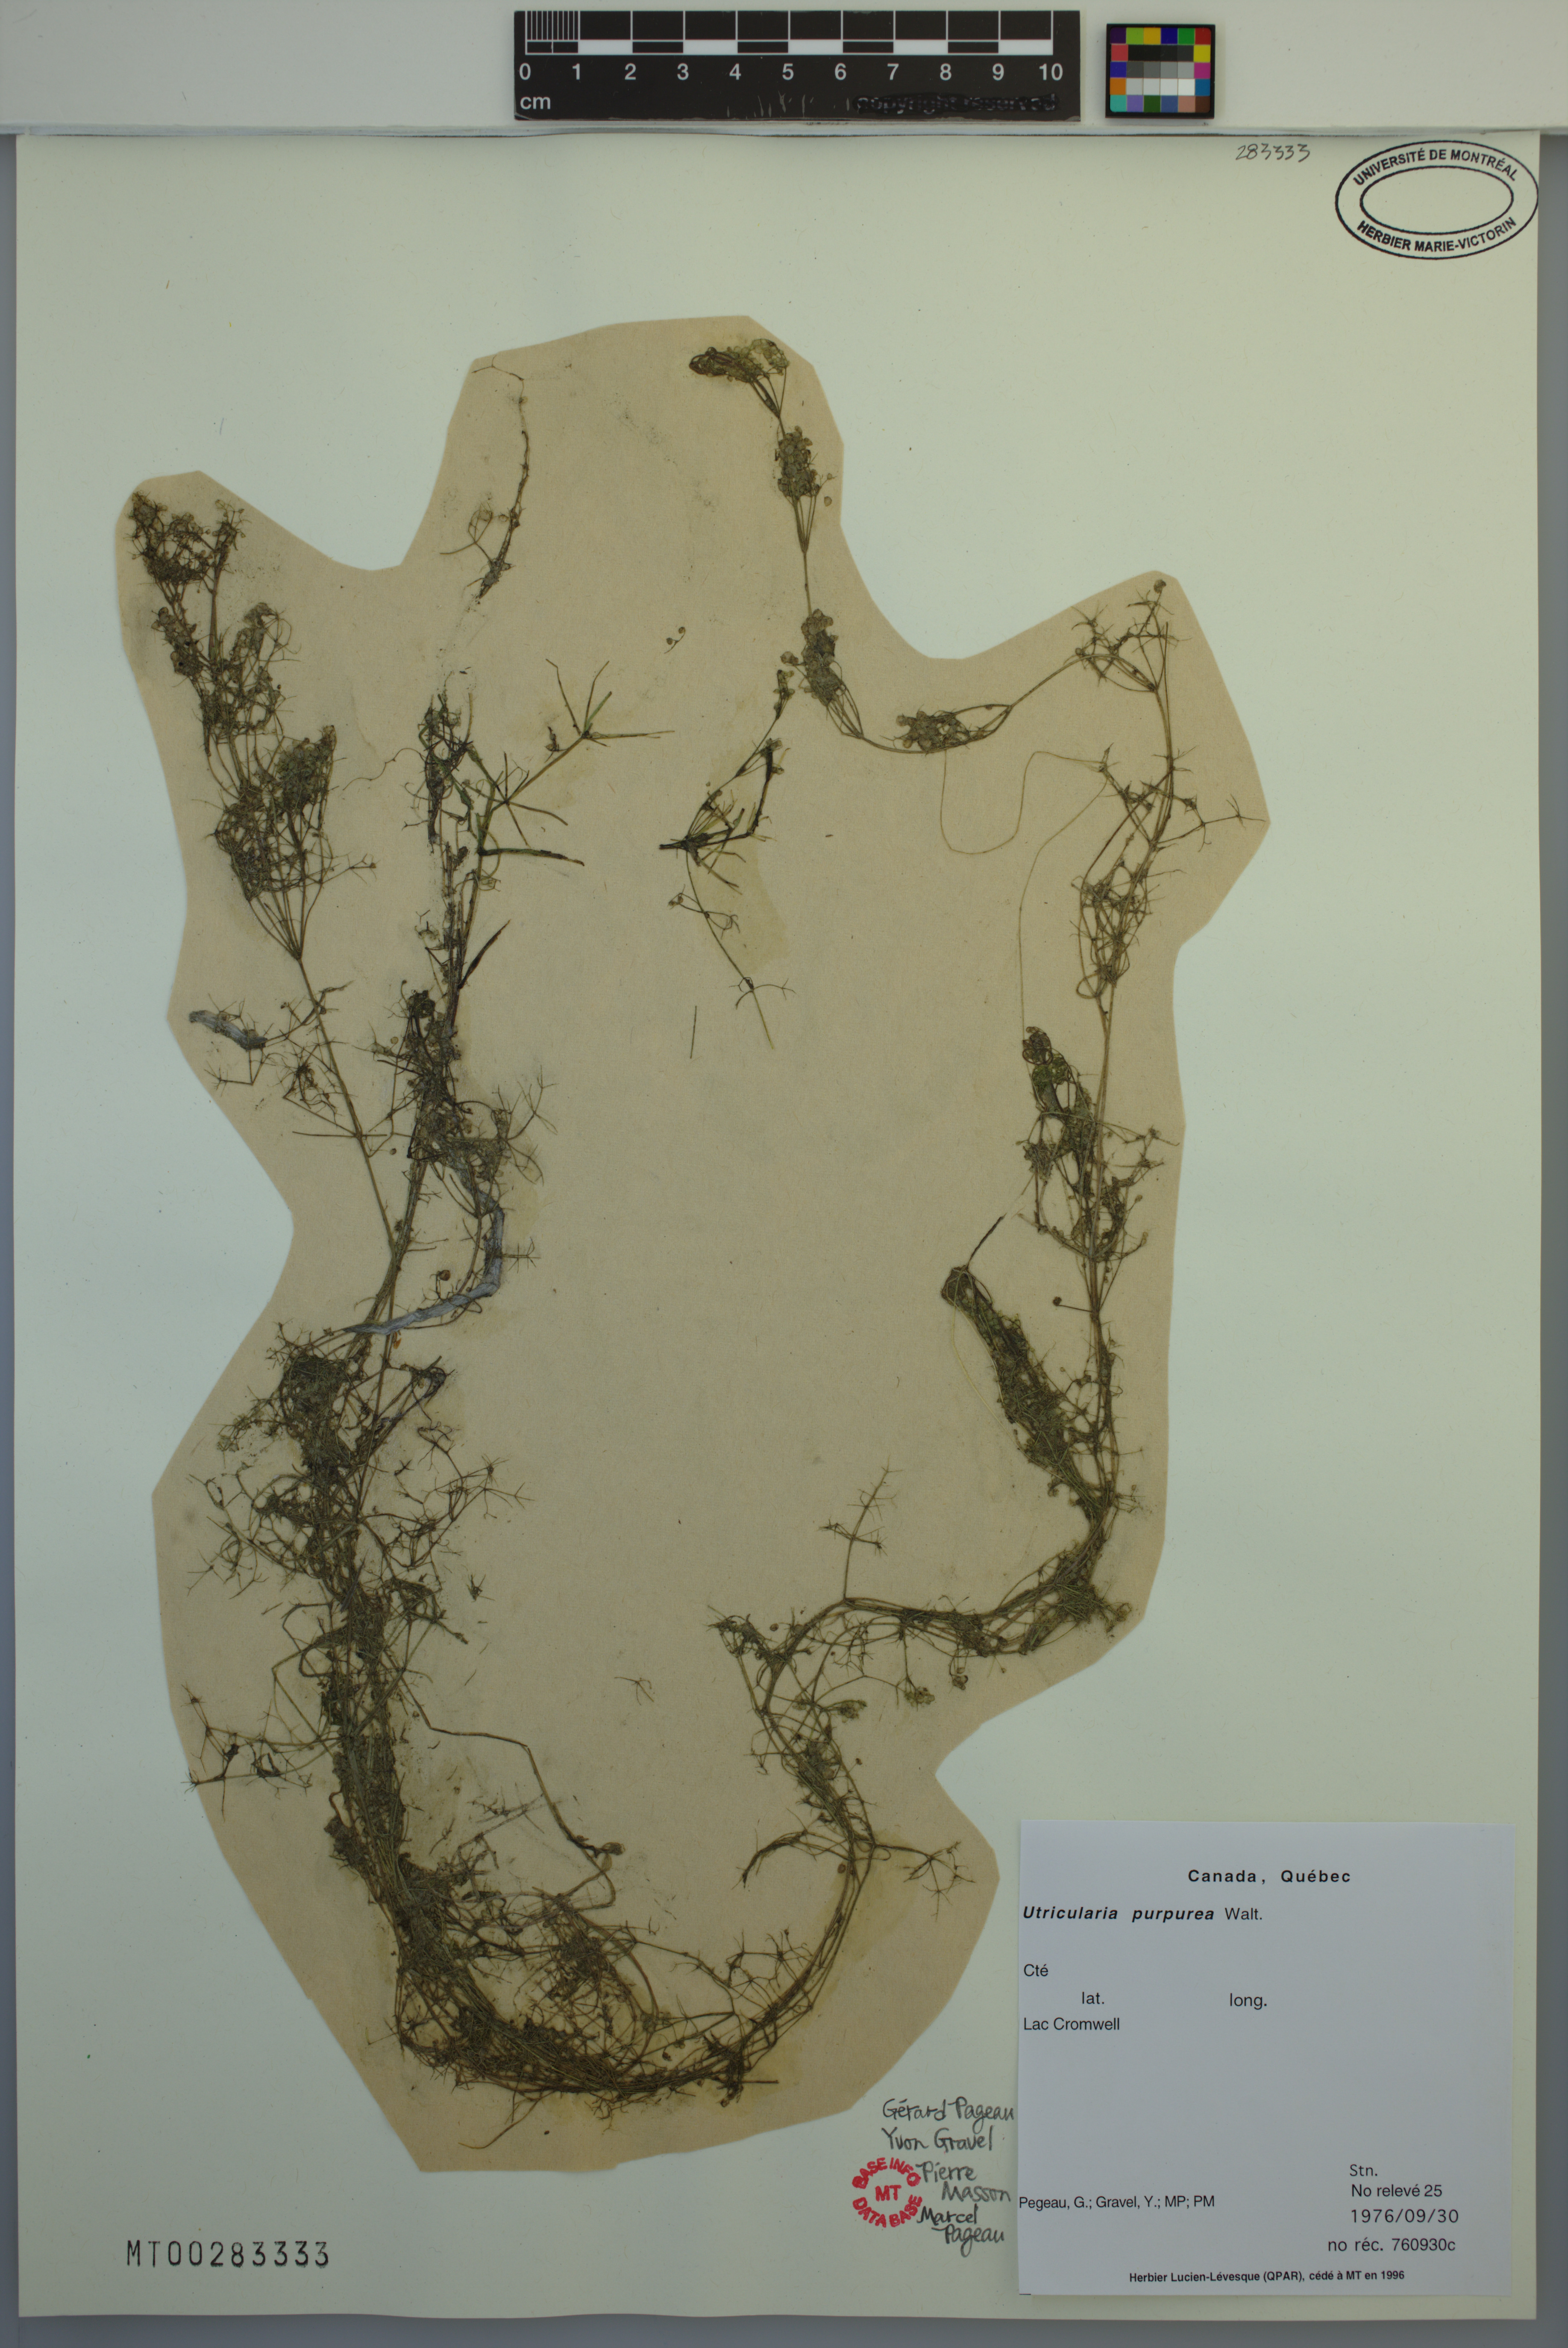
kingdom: Plantae
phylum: Tracheophyta
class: Magnoliopsida
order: Lamiales
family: Lentibulariaceae
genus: Utricularia
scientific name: Utricularia purpurea
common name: Eastern purple bladderwort
